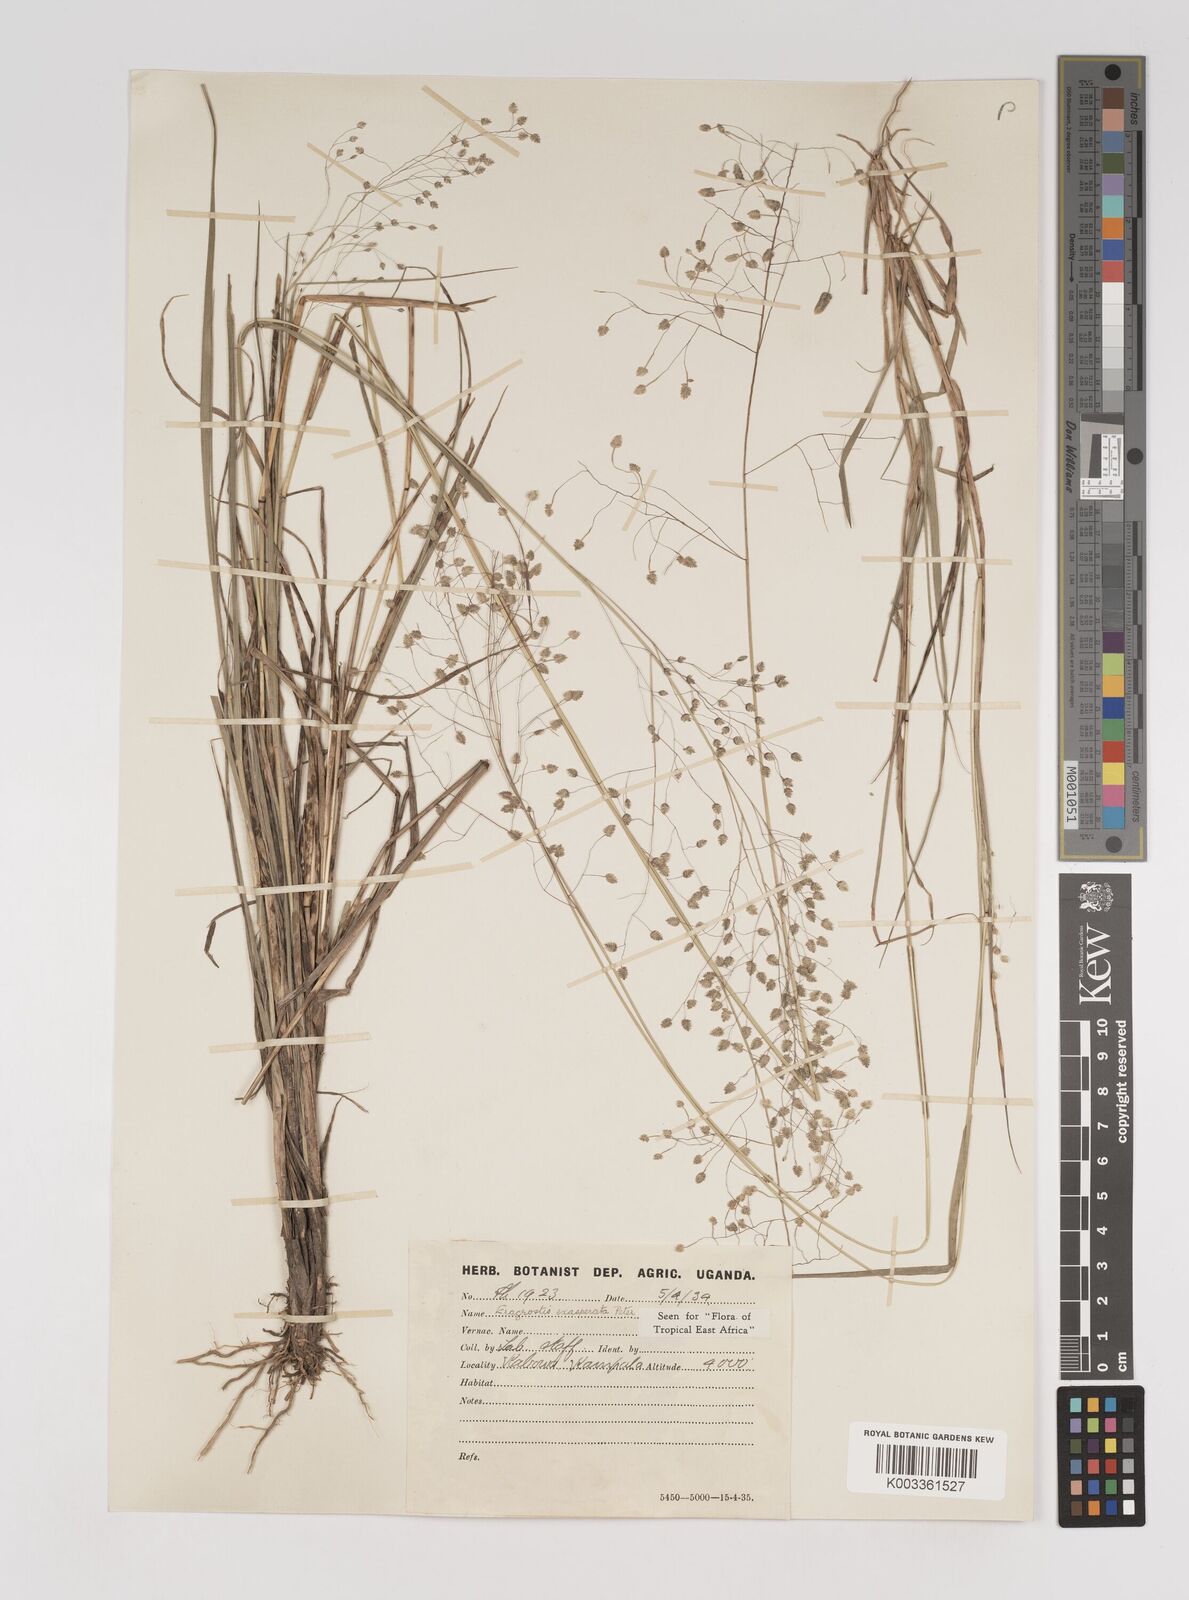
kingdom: Plantae
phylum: Tracheophyta
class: Liliopsida
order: Poales
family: Poaceae
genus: Eragrostis
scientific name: Eragrostis exasperata
